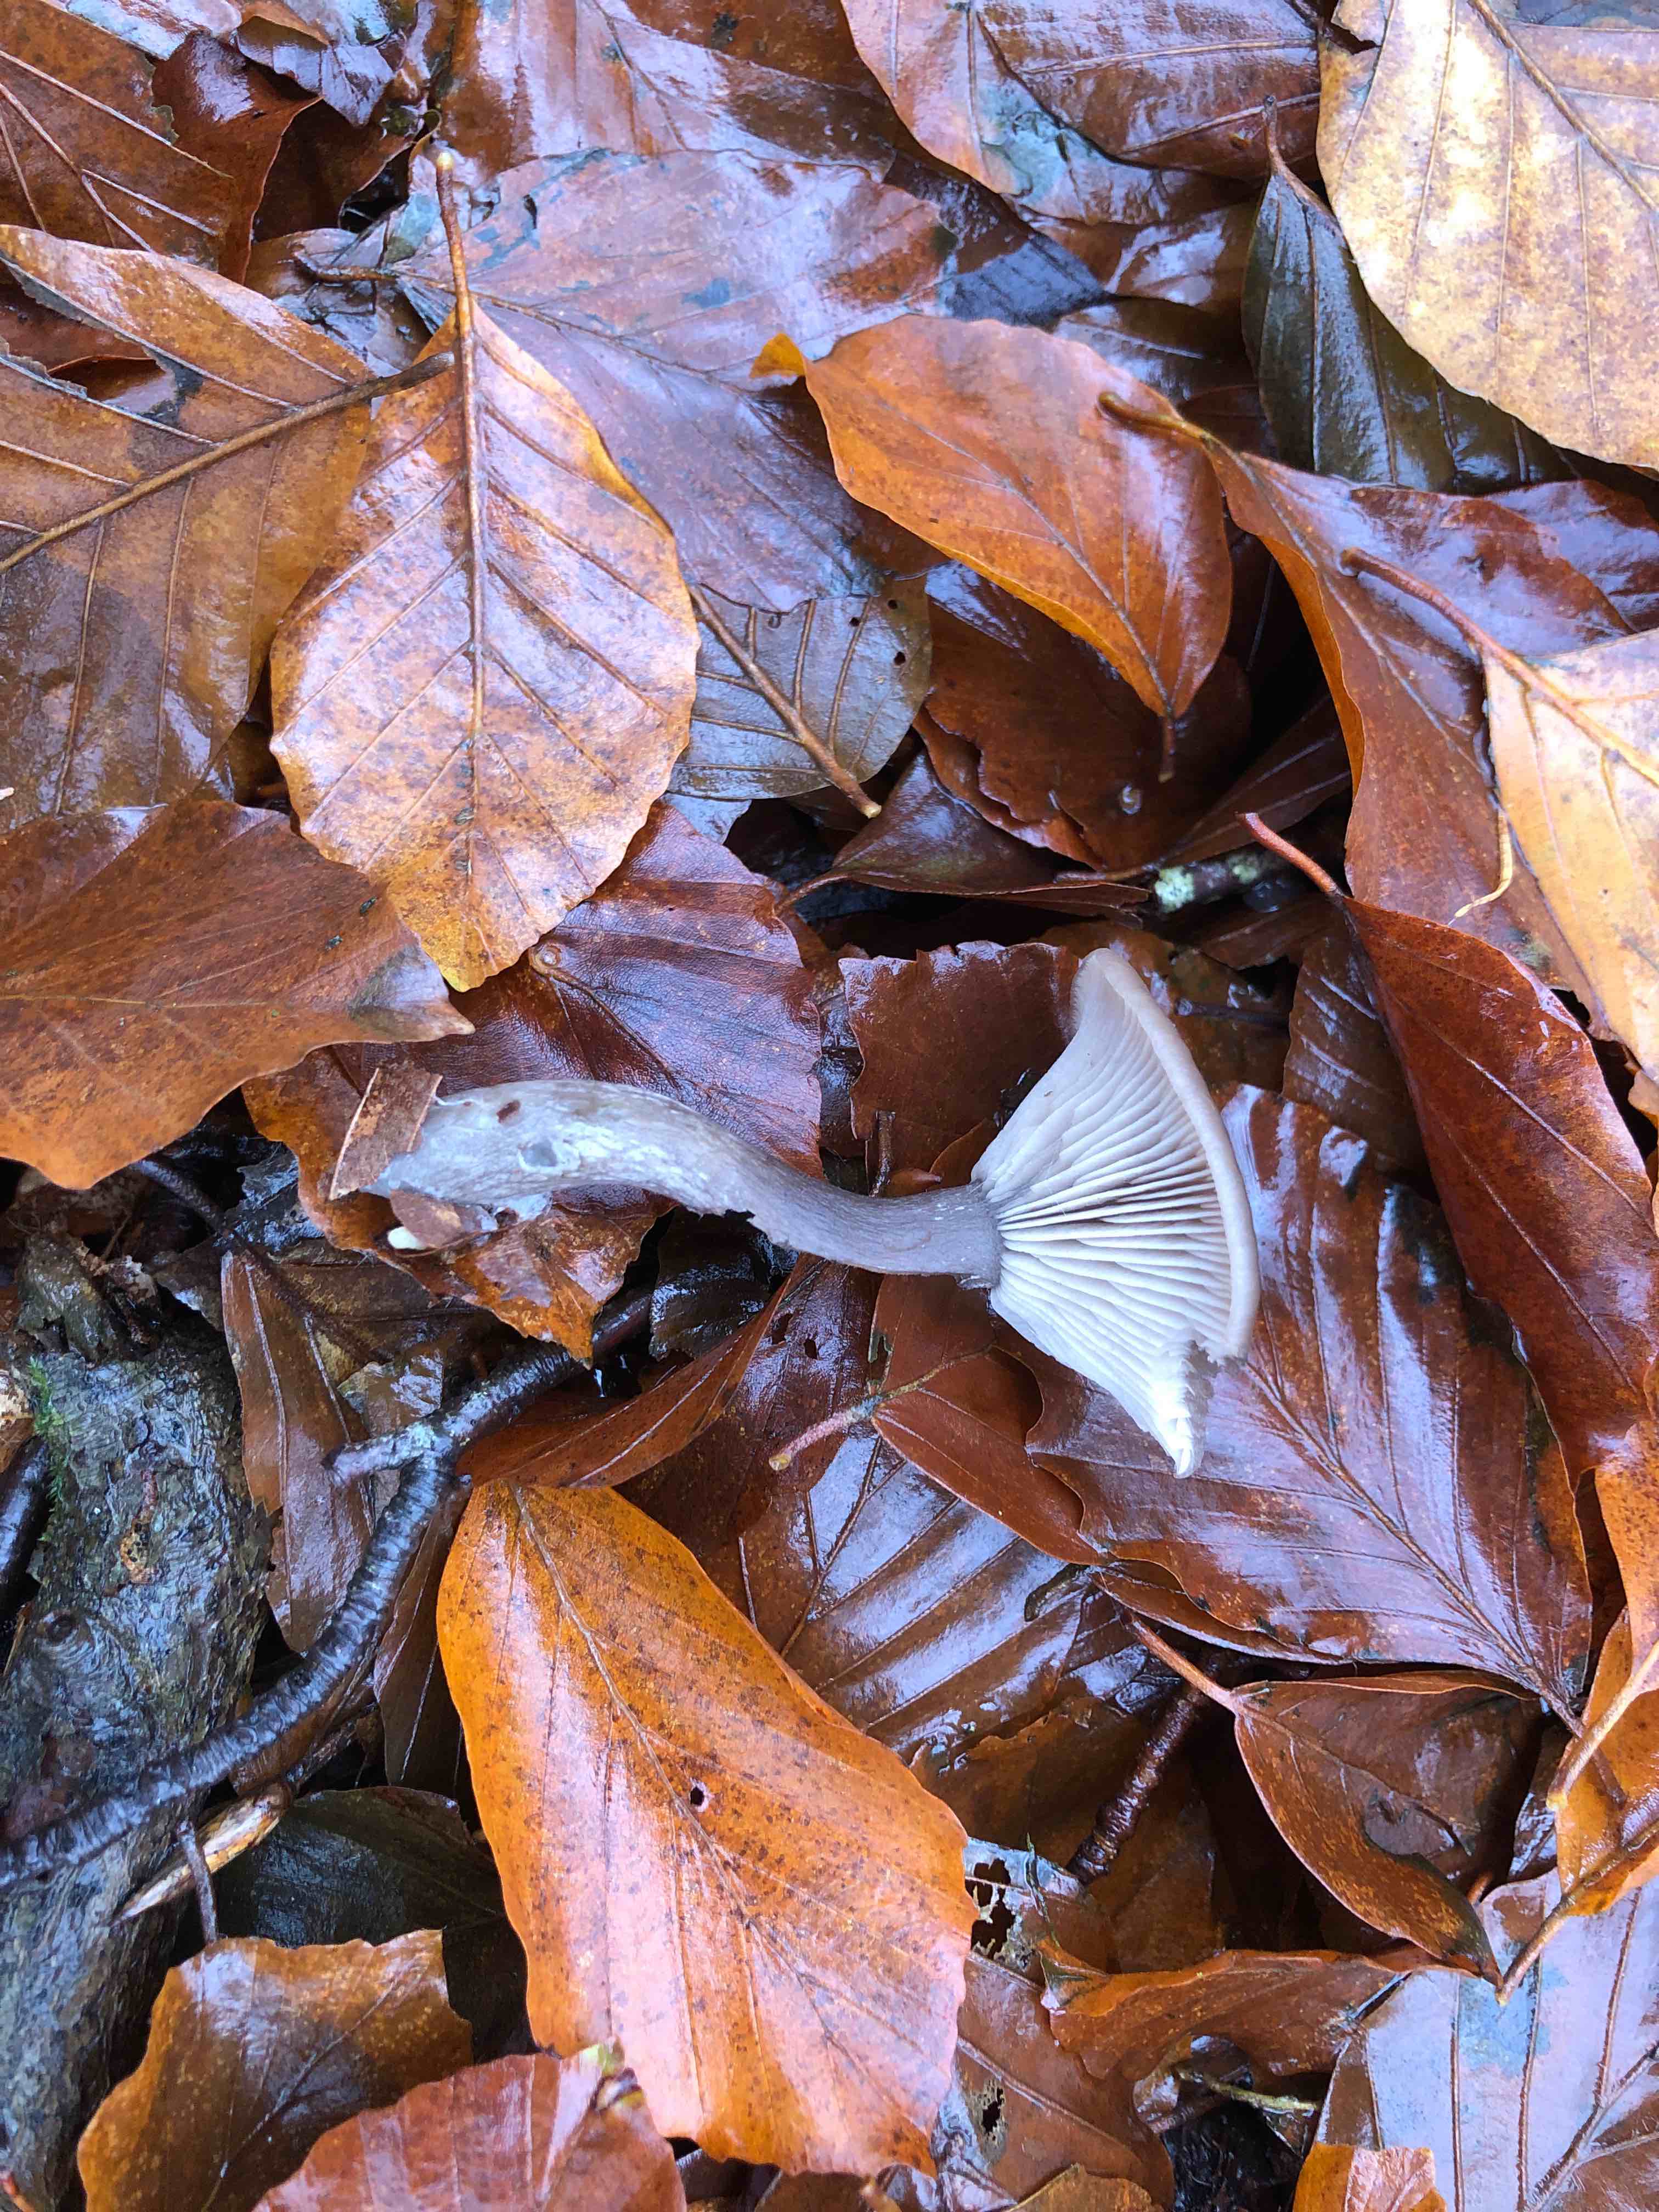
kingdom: Fungi
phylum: Basidiomycota
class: Agaricomycetes
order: Agaricales
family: Pseudoclitocybaceae
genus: Pseudoclitocybe
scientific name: Pseudoclitocybe cyathiformis
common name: almindelig bægertragthat
